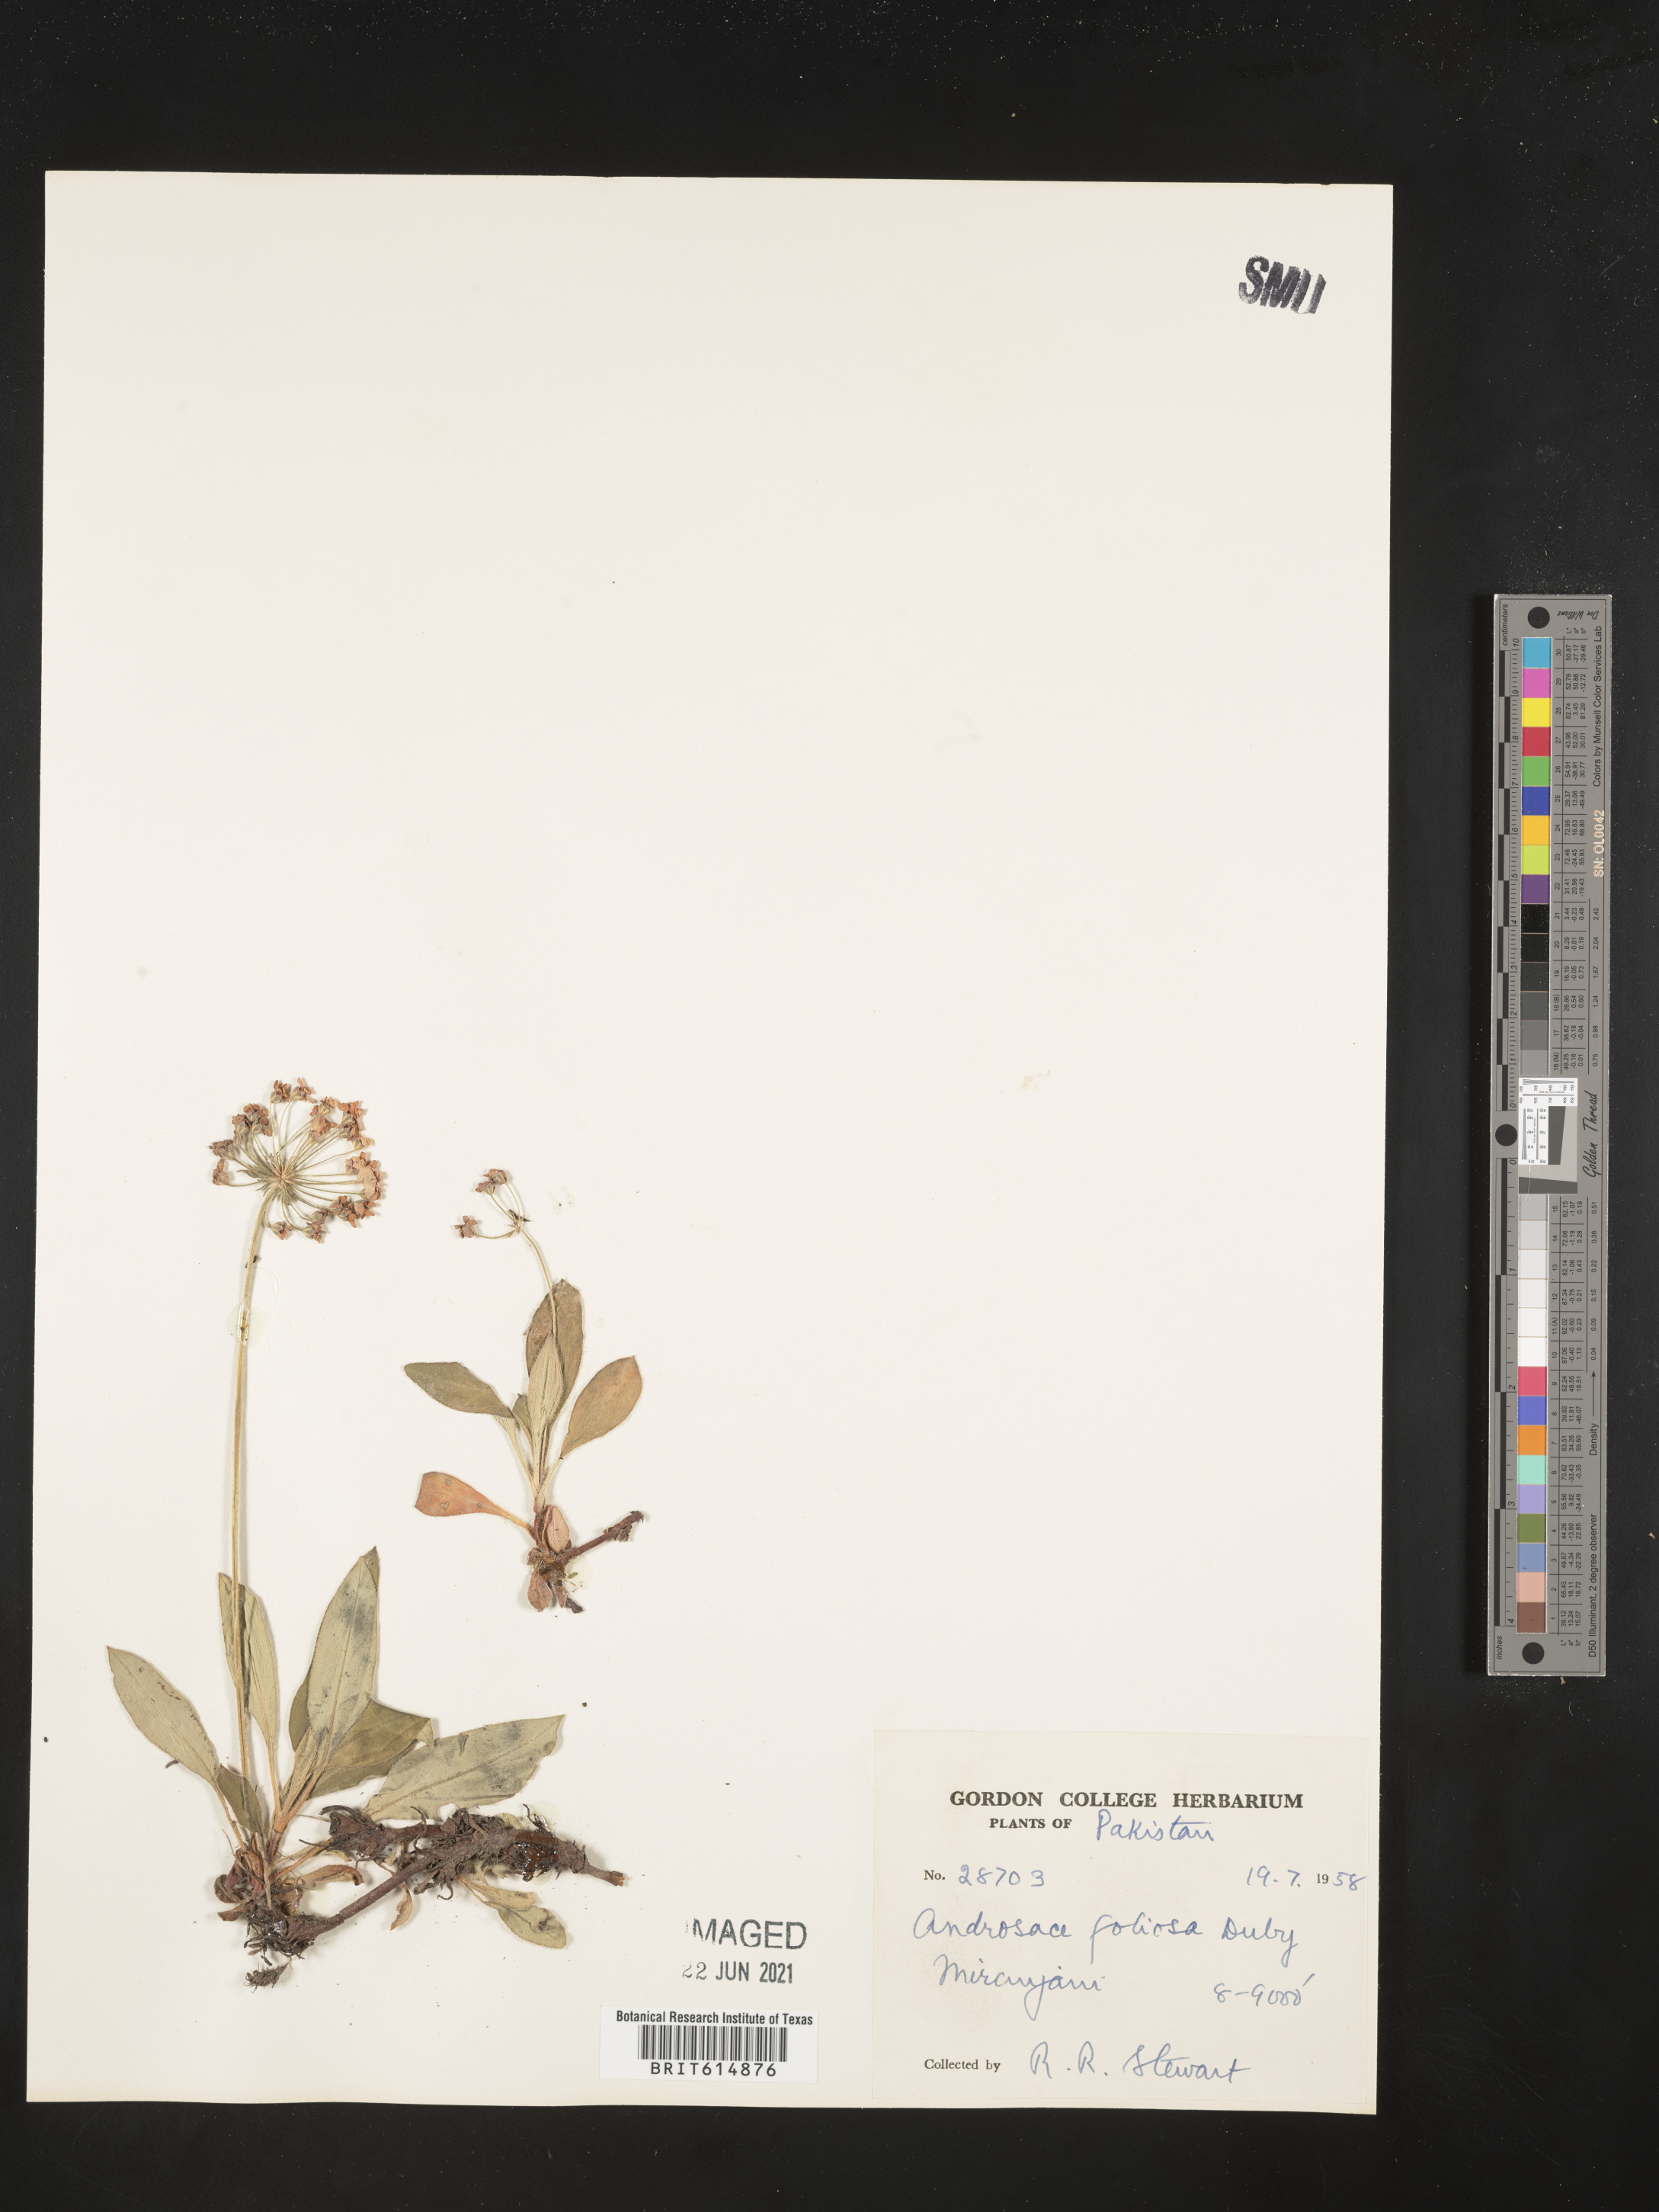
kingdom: Plantae
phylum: Tracheophyta
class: Magnoliopsida
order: Ericales
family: Primulaceae
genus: Androsace
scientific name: Androsace foliosa
